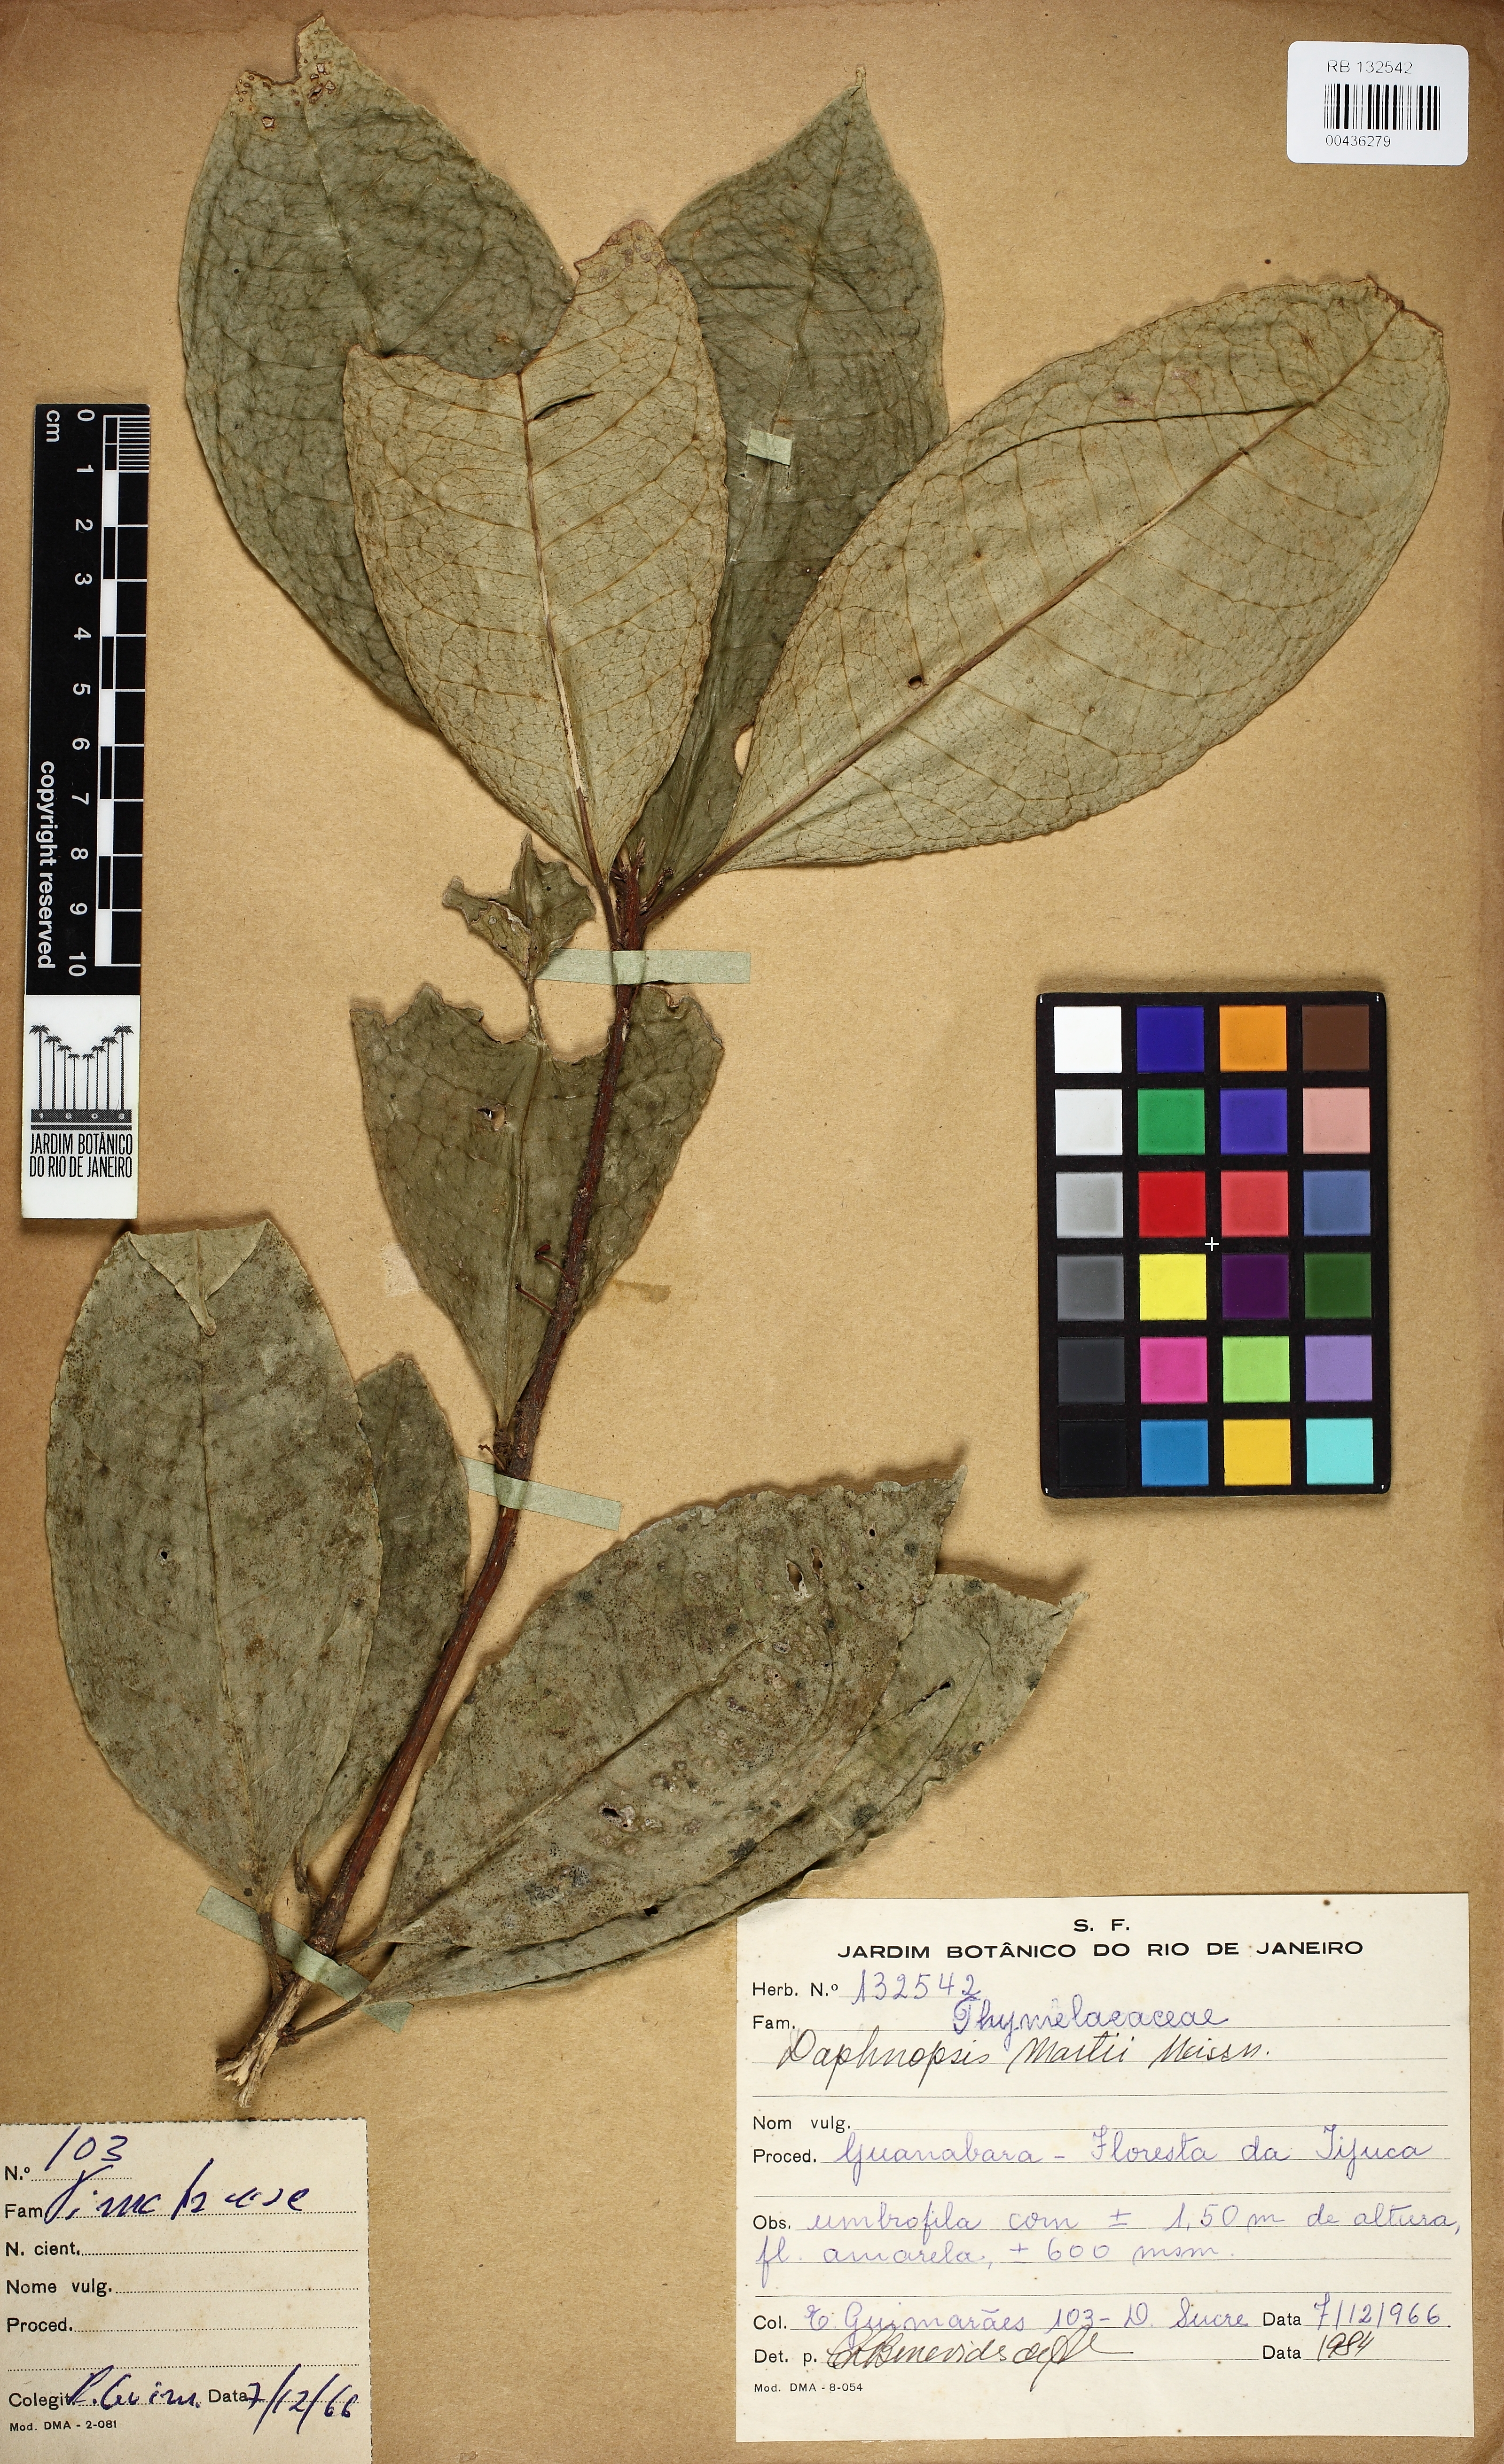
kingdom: Plantae
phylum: Tracheophyta
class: Magnoliopsida
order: Malvales
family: Thymelaeaceae
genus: Daphnopsis
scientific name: Daphnopsis martii
